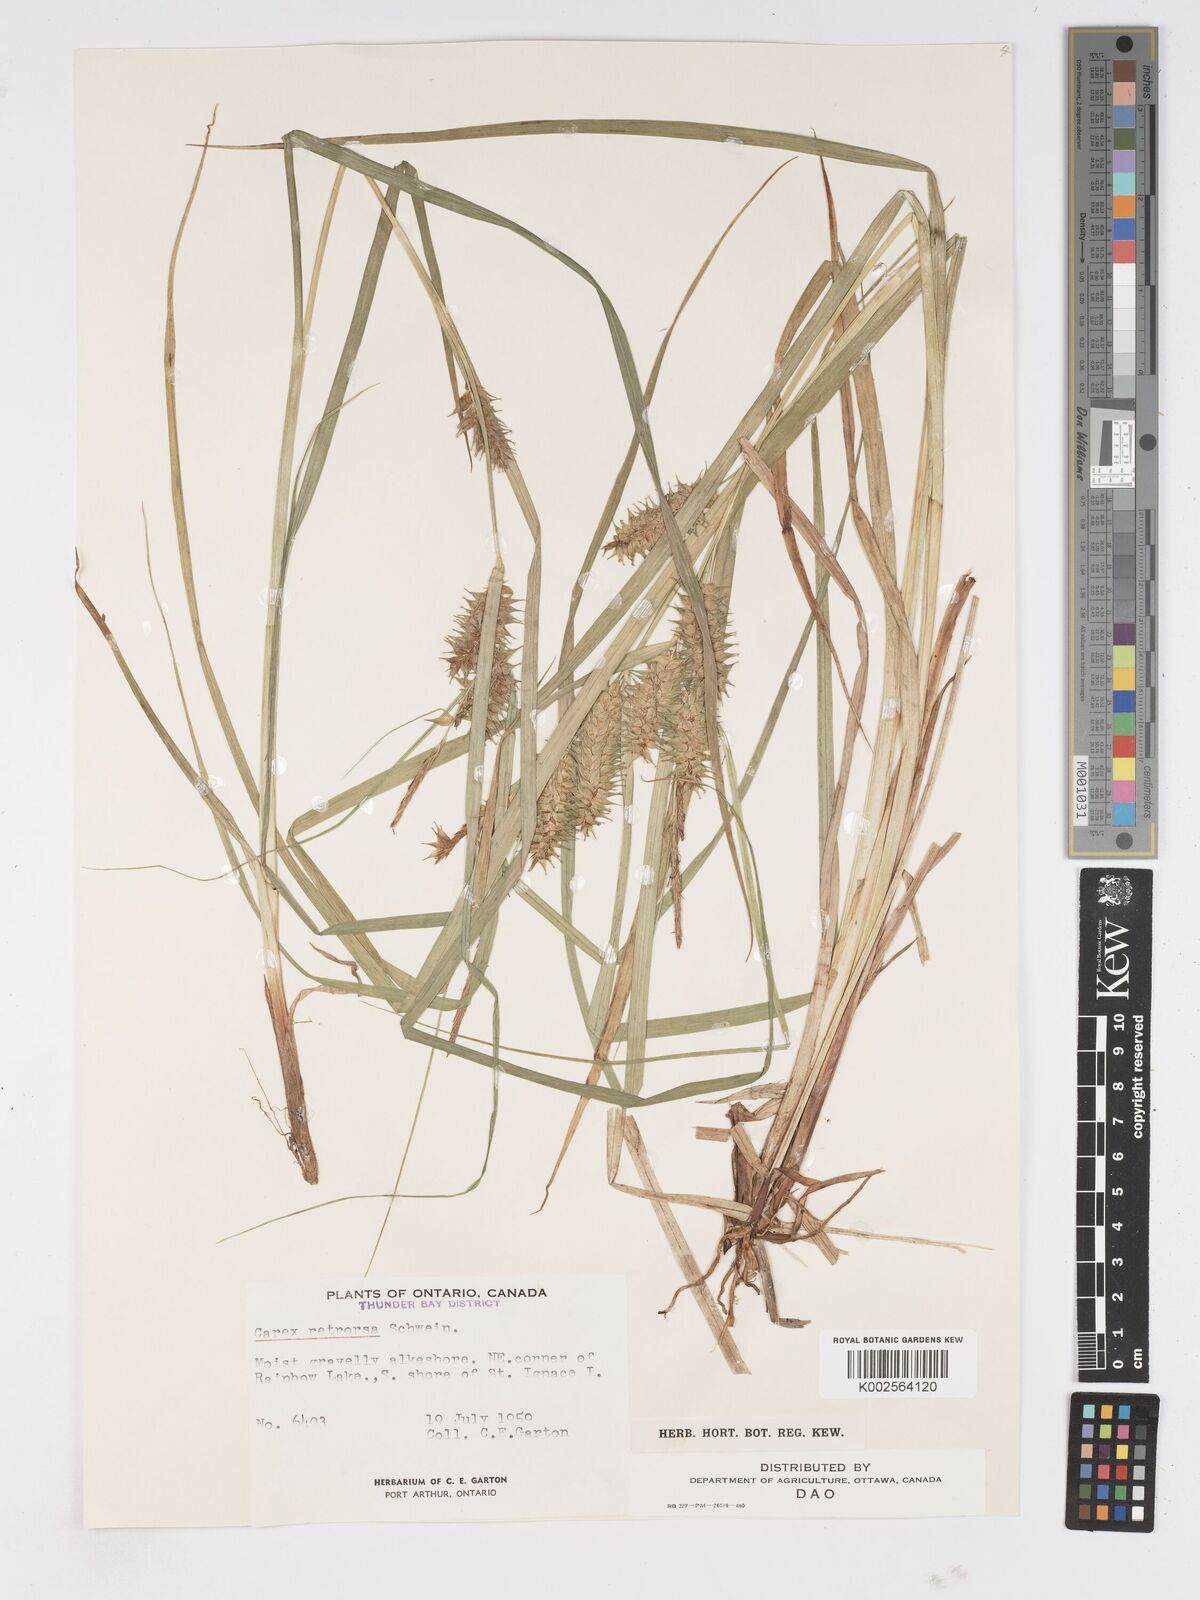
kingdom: Plantae
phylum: Tracheophyta
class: Liliopsida
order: Poales
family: Cyperaceae
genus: Carex
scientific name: Carex retrorsa
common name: Knot-sheath sedge
